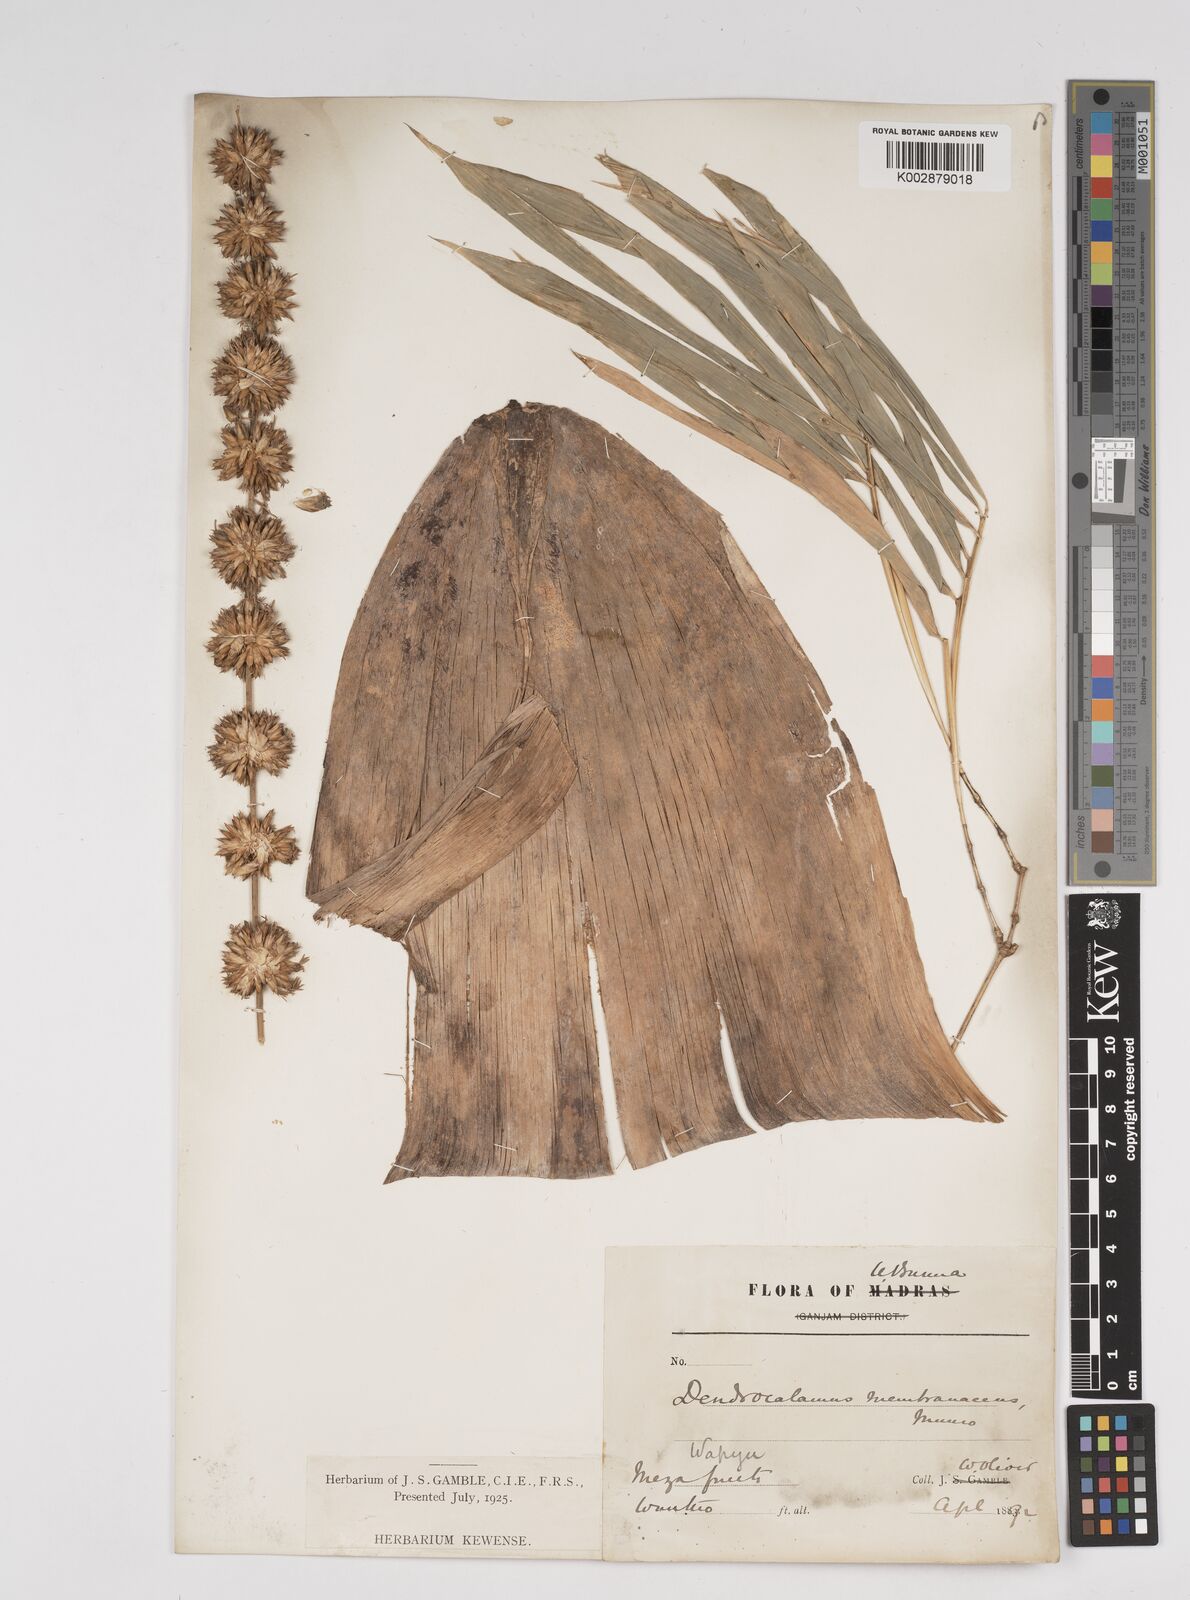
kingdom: Plantae
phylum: Tracheophyta
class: Liliopsida
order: Poales
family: Poaceae
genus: Dendrocalamus
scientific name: Dendrocalamus membranaceus
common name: White bamboo
